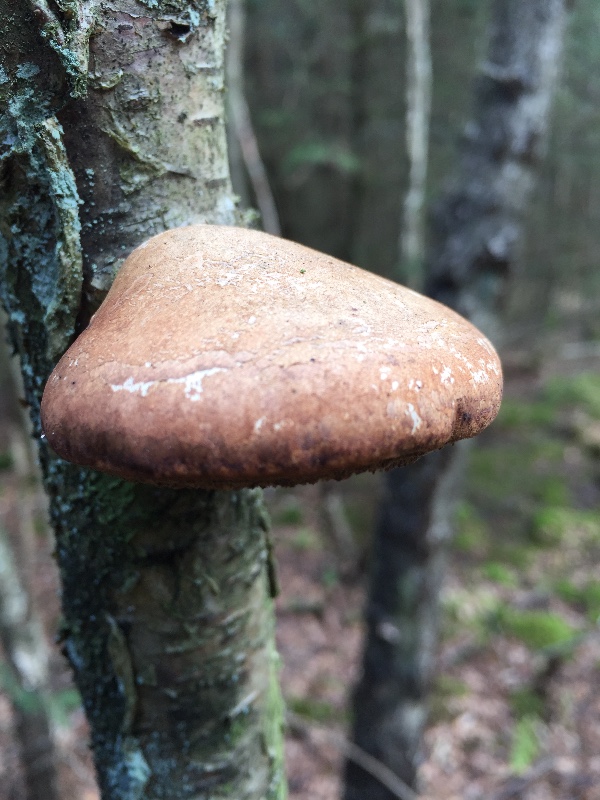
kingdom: Fungi
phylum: Basidiomycota
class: Agaricomycetes
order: Polyporales
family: Fomitopsidaceae
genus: Fomitopsis
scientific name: Fomitopsis betulina
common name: birkeporesvamp
